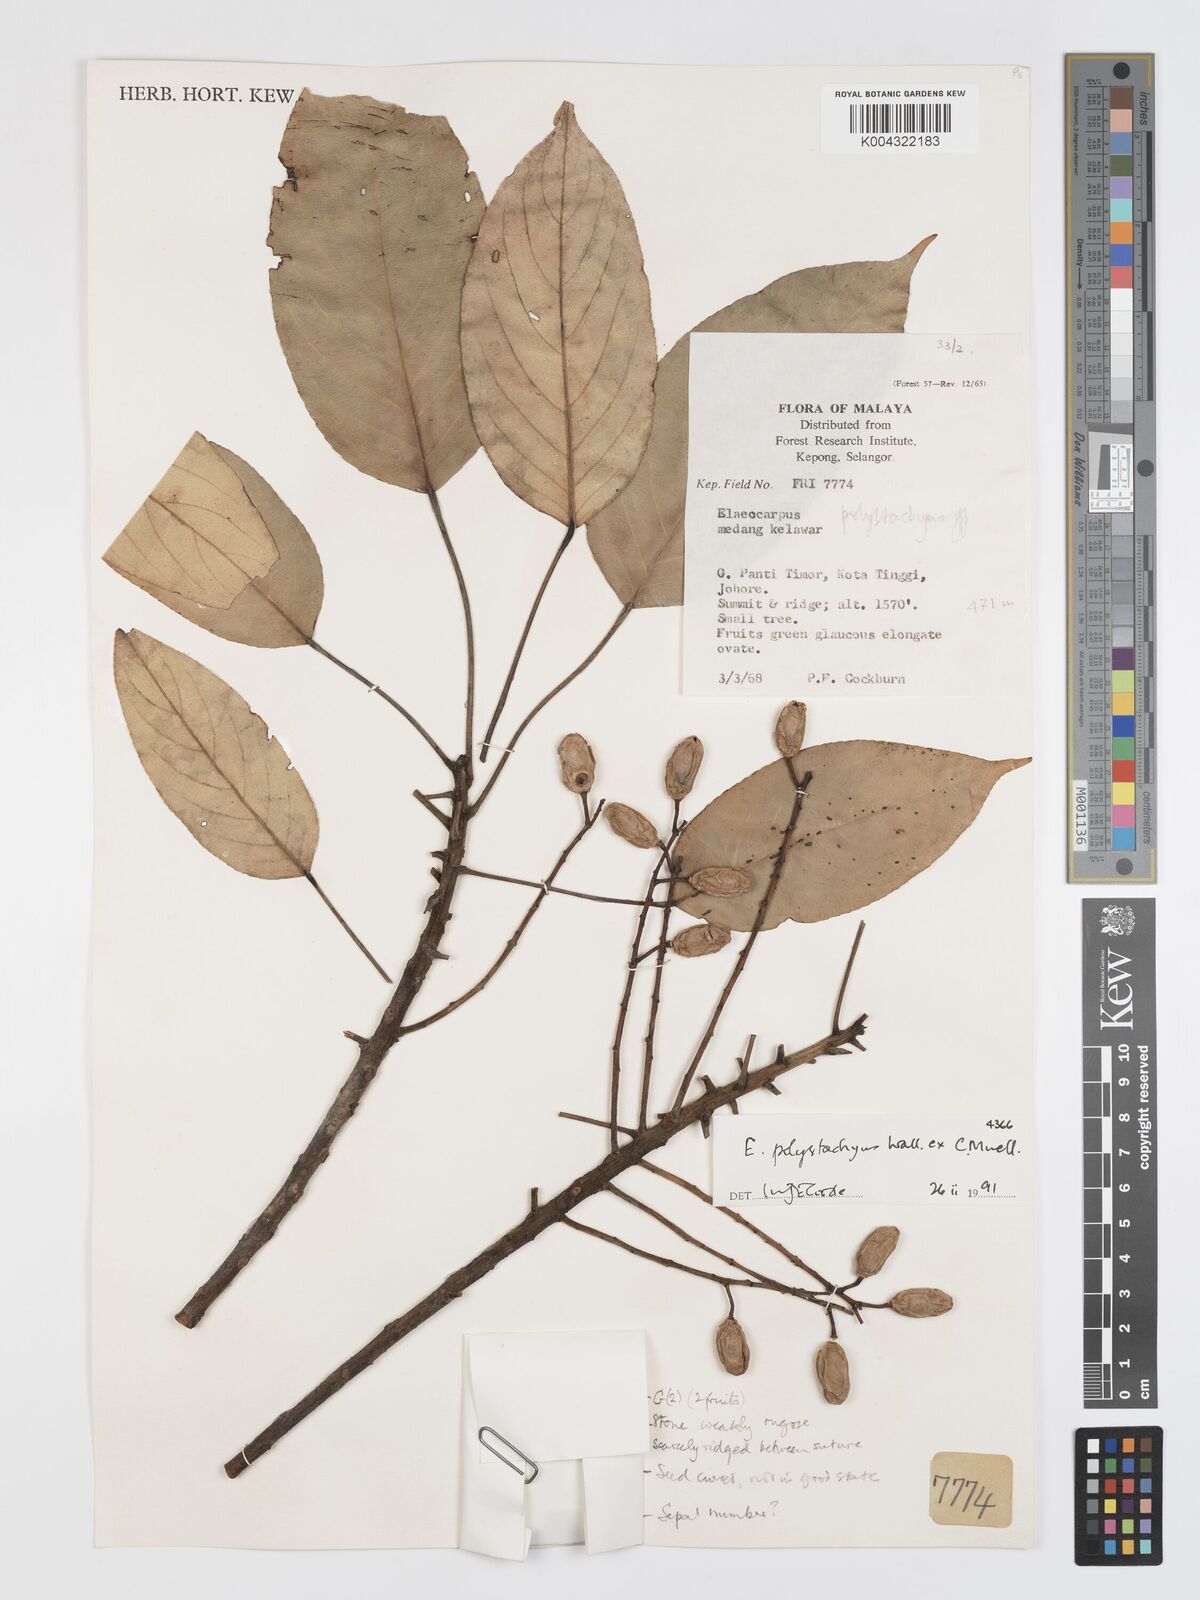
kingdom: Plantae
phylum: Tracheophyta
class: Magnoliopsida
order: Oxalidales
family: Elaeocarpaceae
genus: Elaeocarpus
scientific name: Elaeocarpus polystachyus
